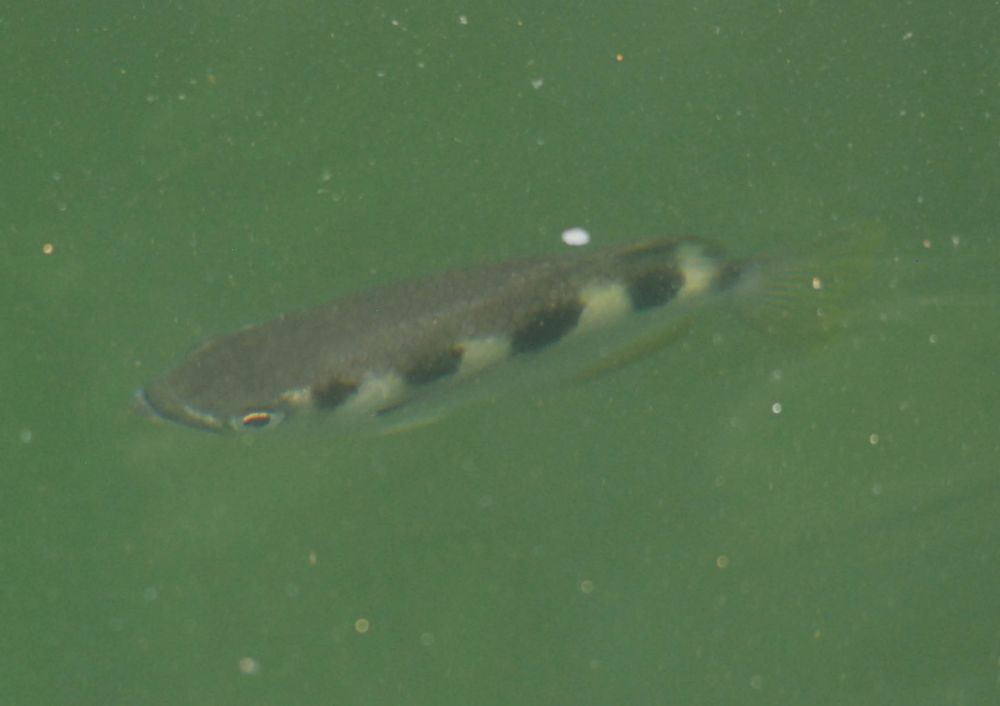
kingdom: Animalia
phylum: Chordata
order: Perciformes
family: Toxotidae
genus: Toxotes
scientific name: Toxotes jaculatrix
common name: Banded archerfish
